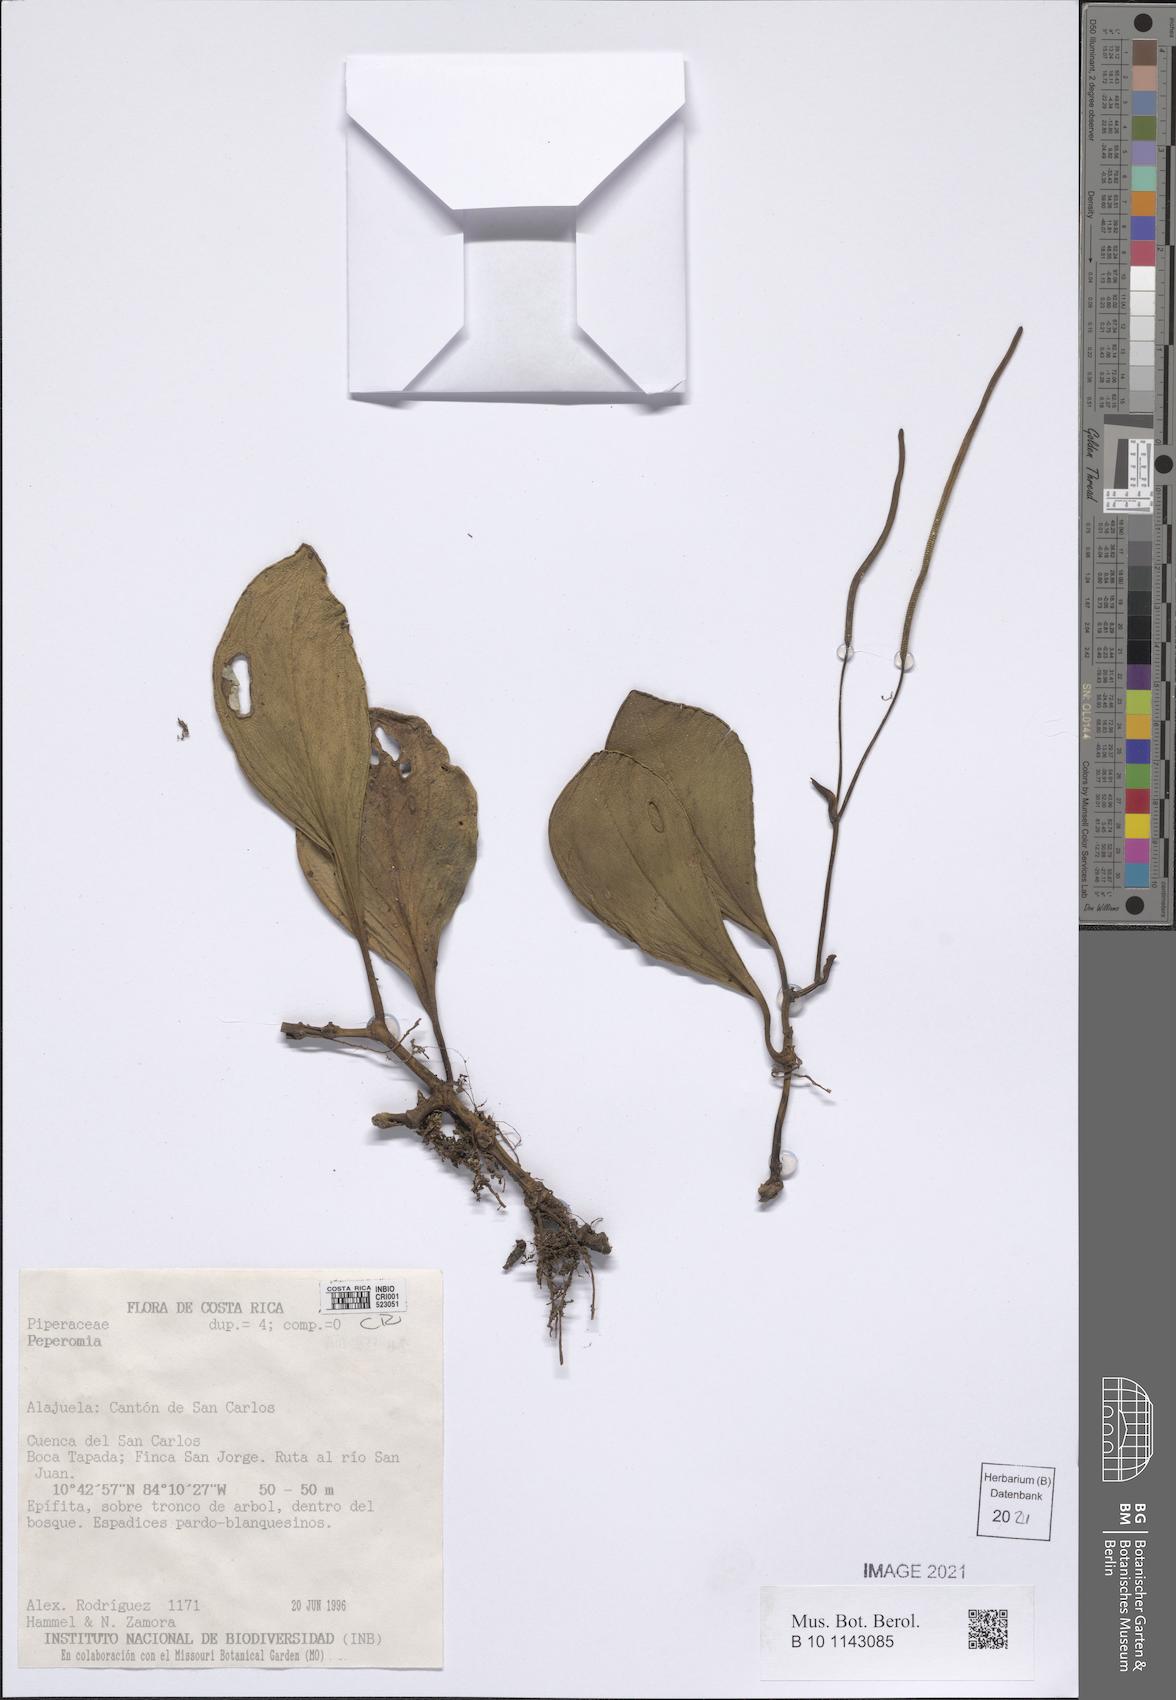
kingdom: Plantae
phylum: Tracheophyta
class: Magnoliopsida
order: Piperales
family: Piperaceae
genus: Peperomia
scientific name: Peperomia
